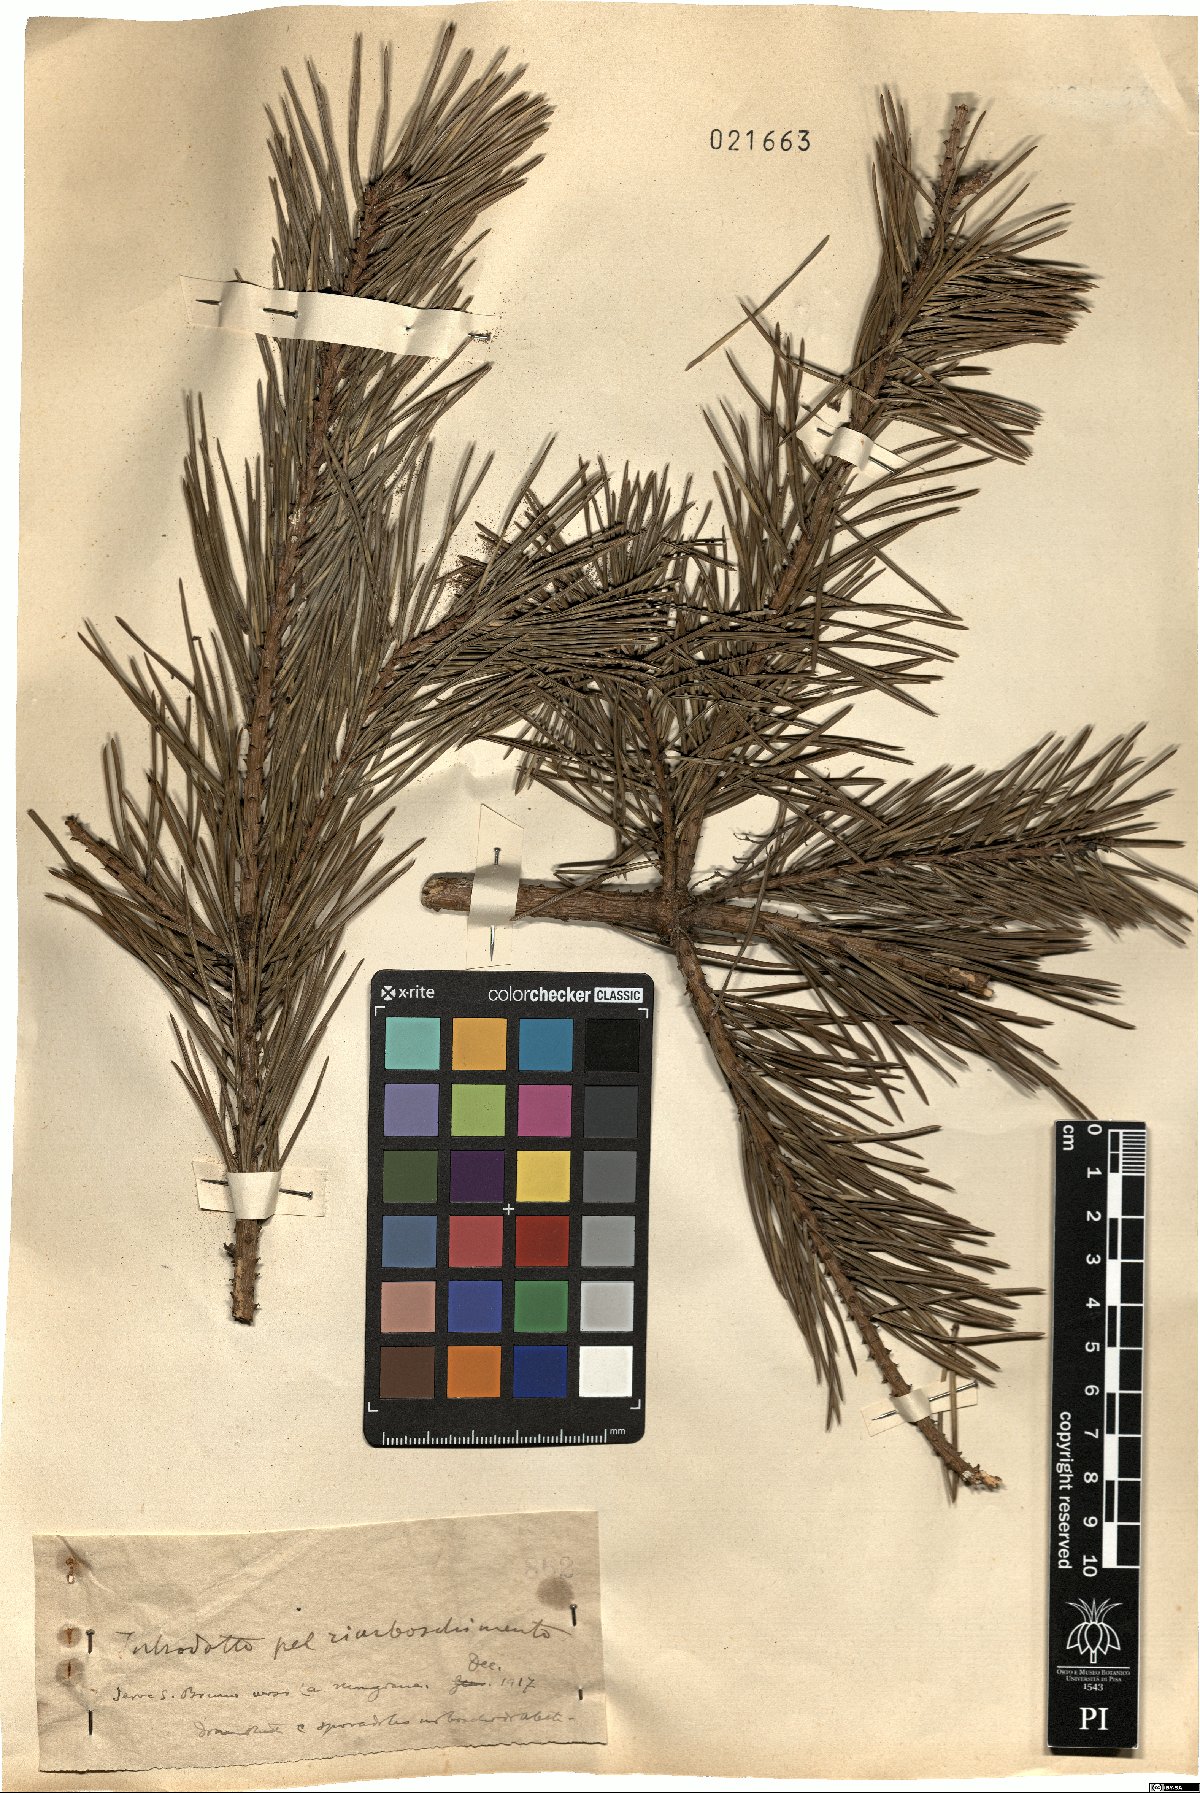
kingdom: Plantae
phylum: Tracheophyta
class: Pinopsida
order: Pinales
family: Pinaceae
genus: Pinus
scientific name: Pinus
